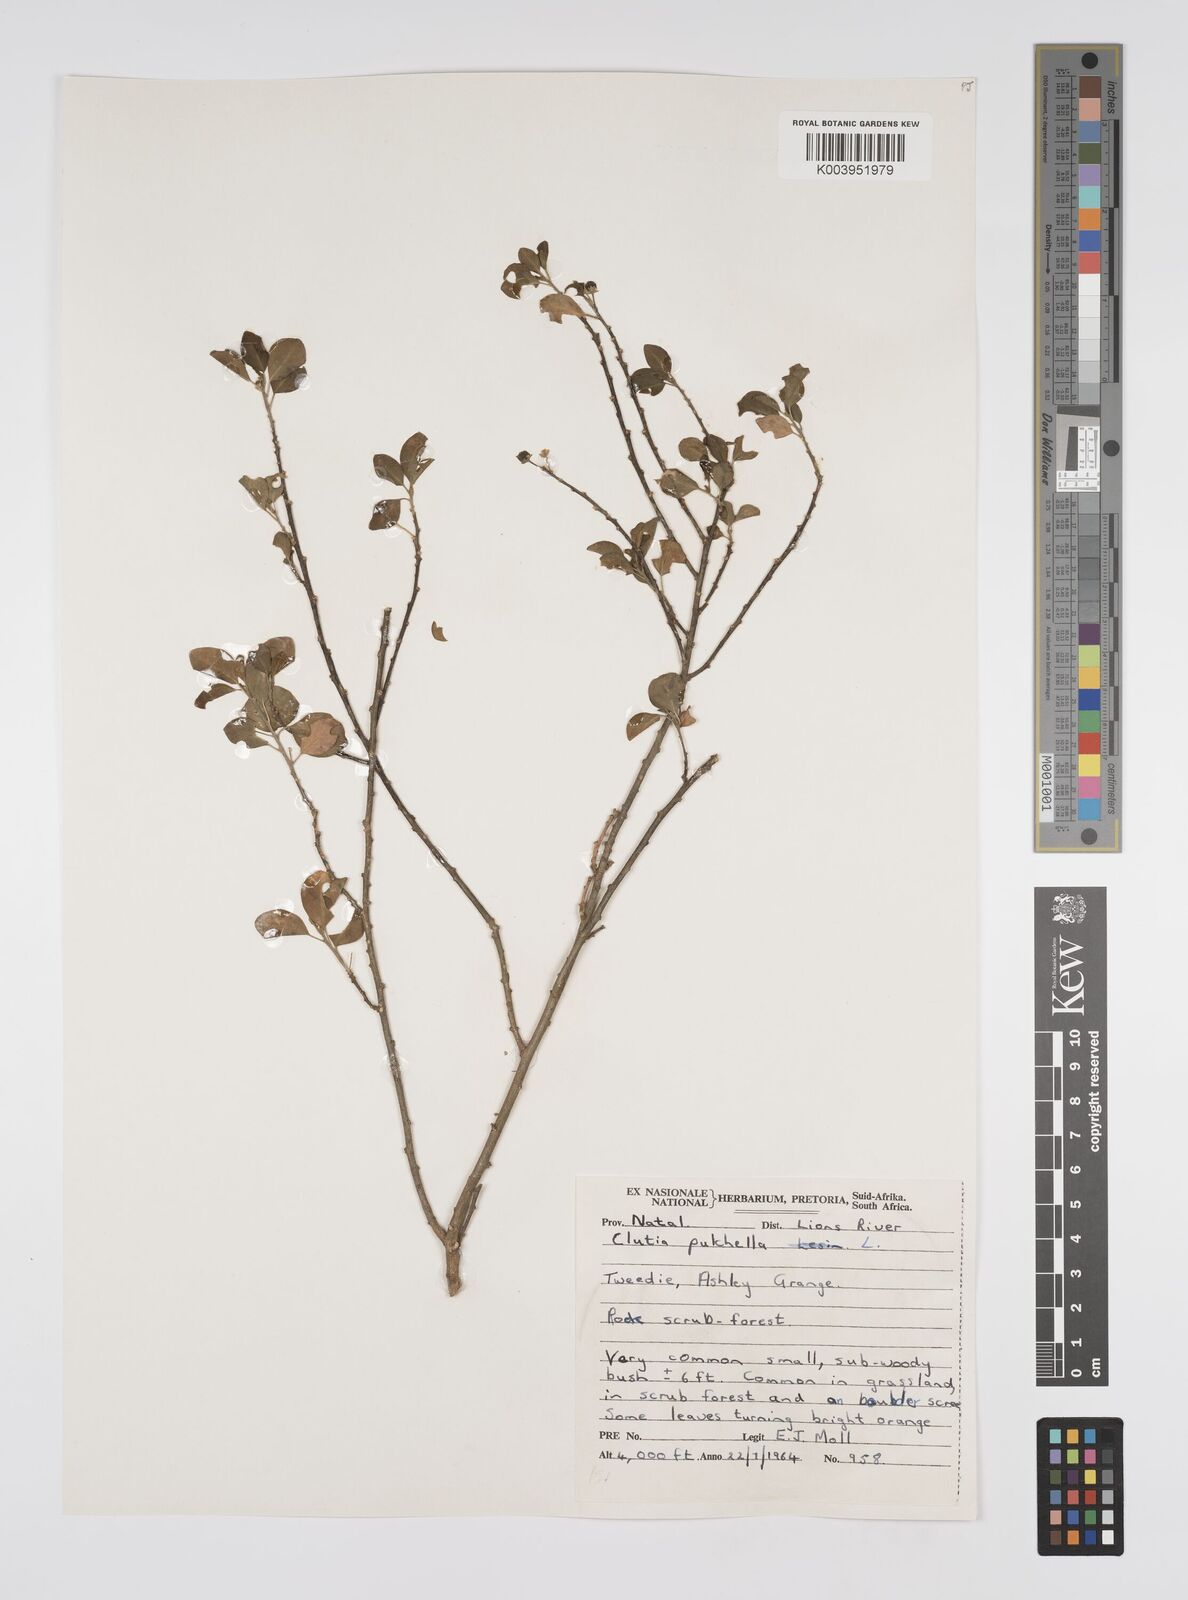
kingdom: Plantae
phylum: Tracheophyta
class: Magnoliopsida
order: Malpighiales
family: Peraceae
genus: Clutia
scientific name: Clutia pulchella
